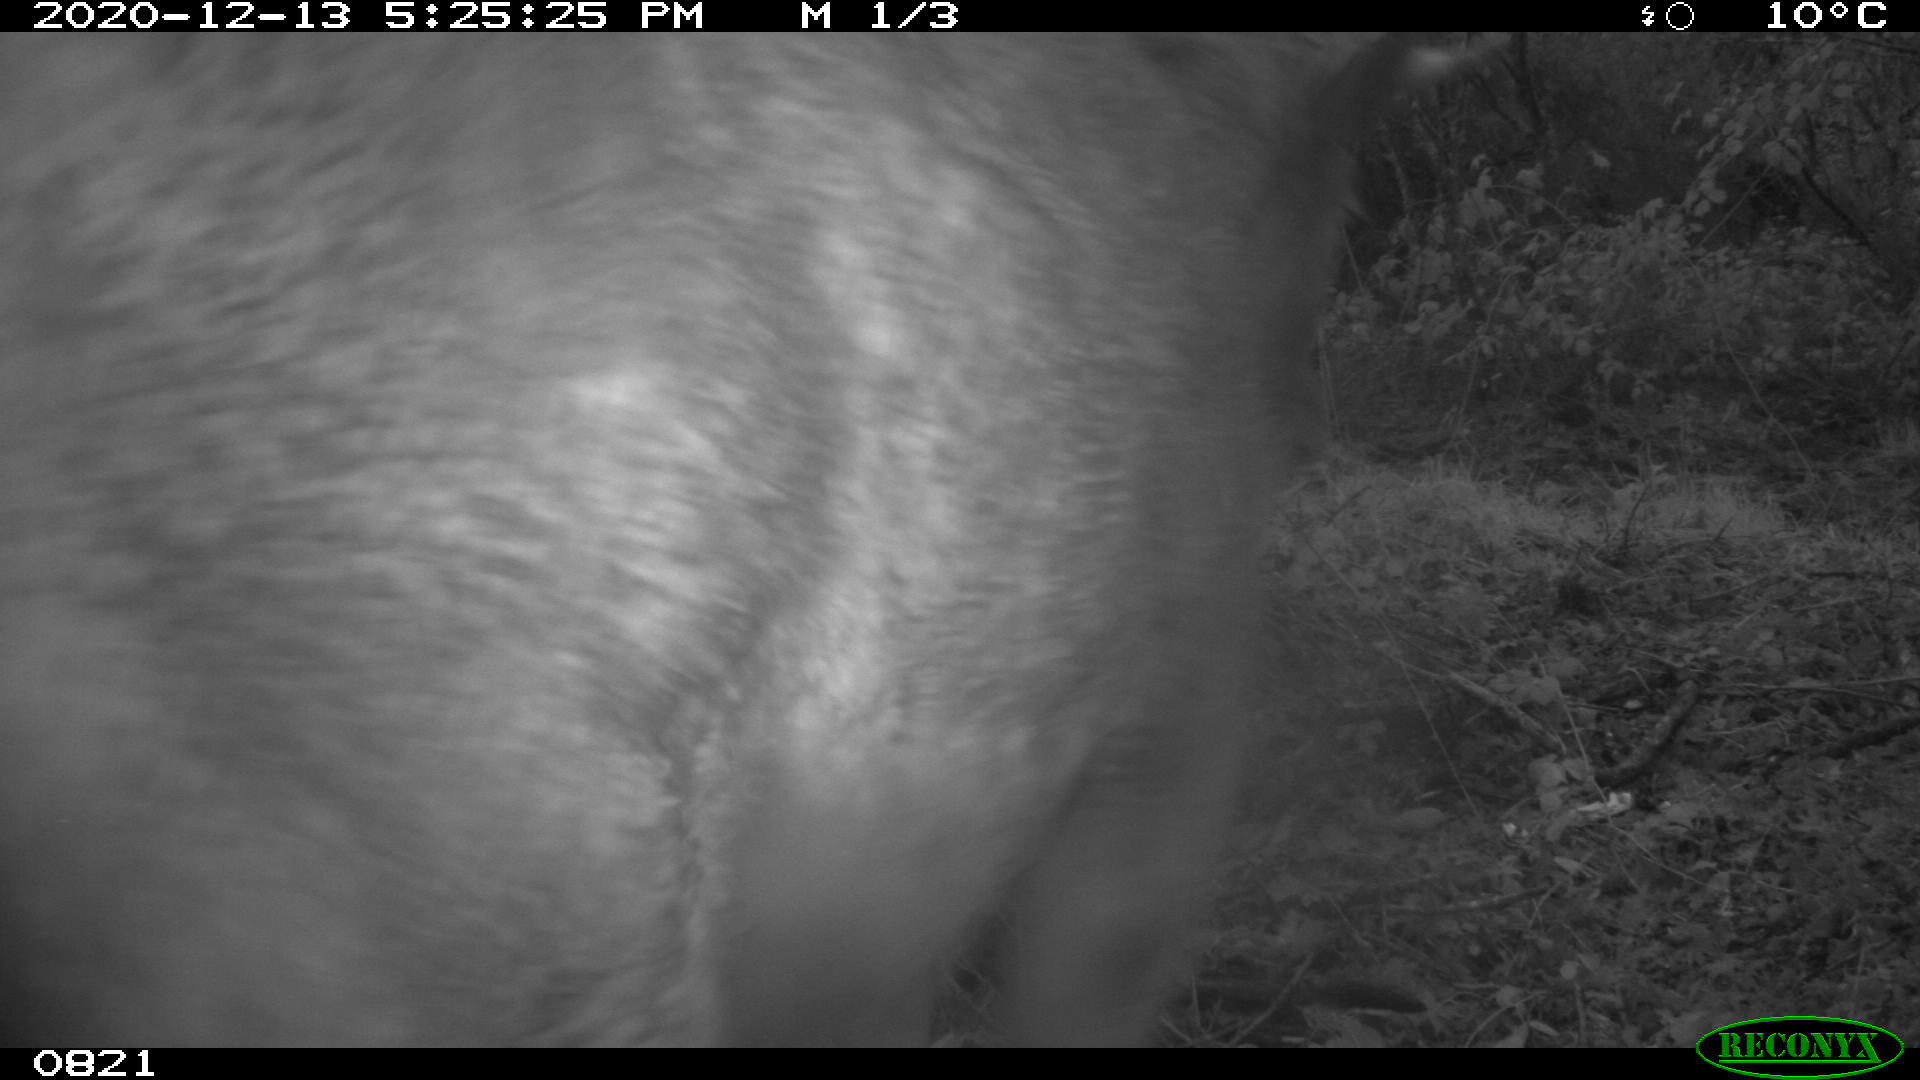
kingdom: Animalia
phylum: Chordata
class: Mammalia
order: Artiodactyla
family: Bovidae
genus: Bos
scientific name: Bos taurus
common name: Domesticated cattle
